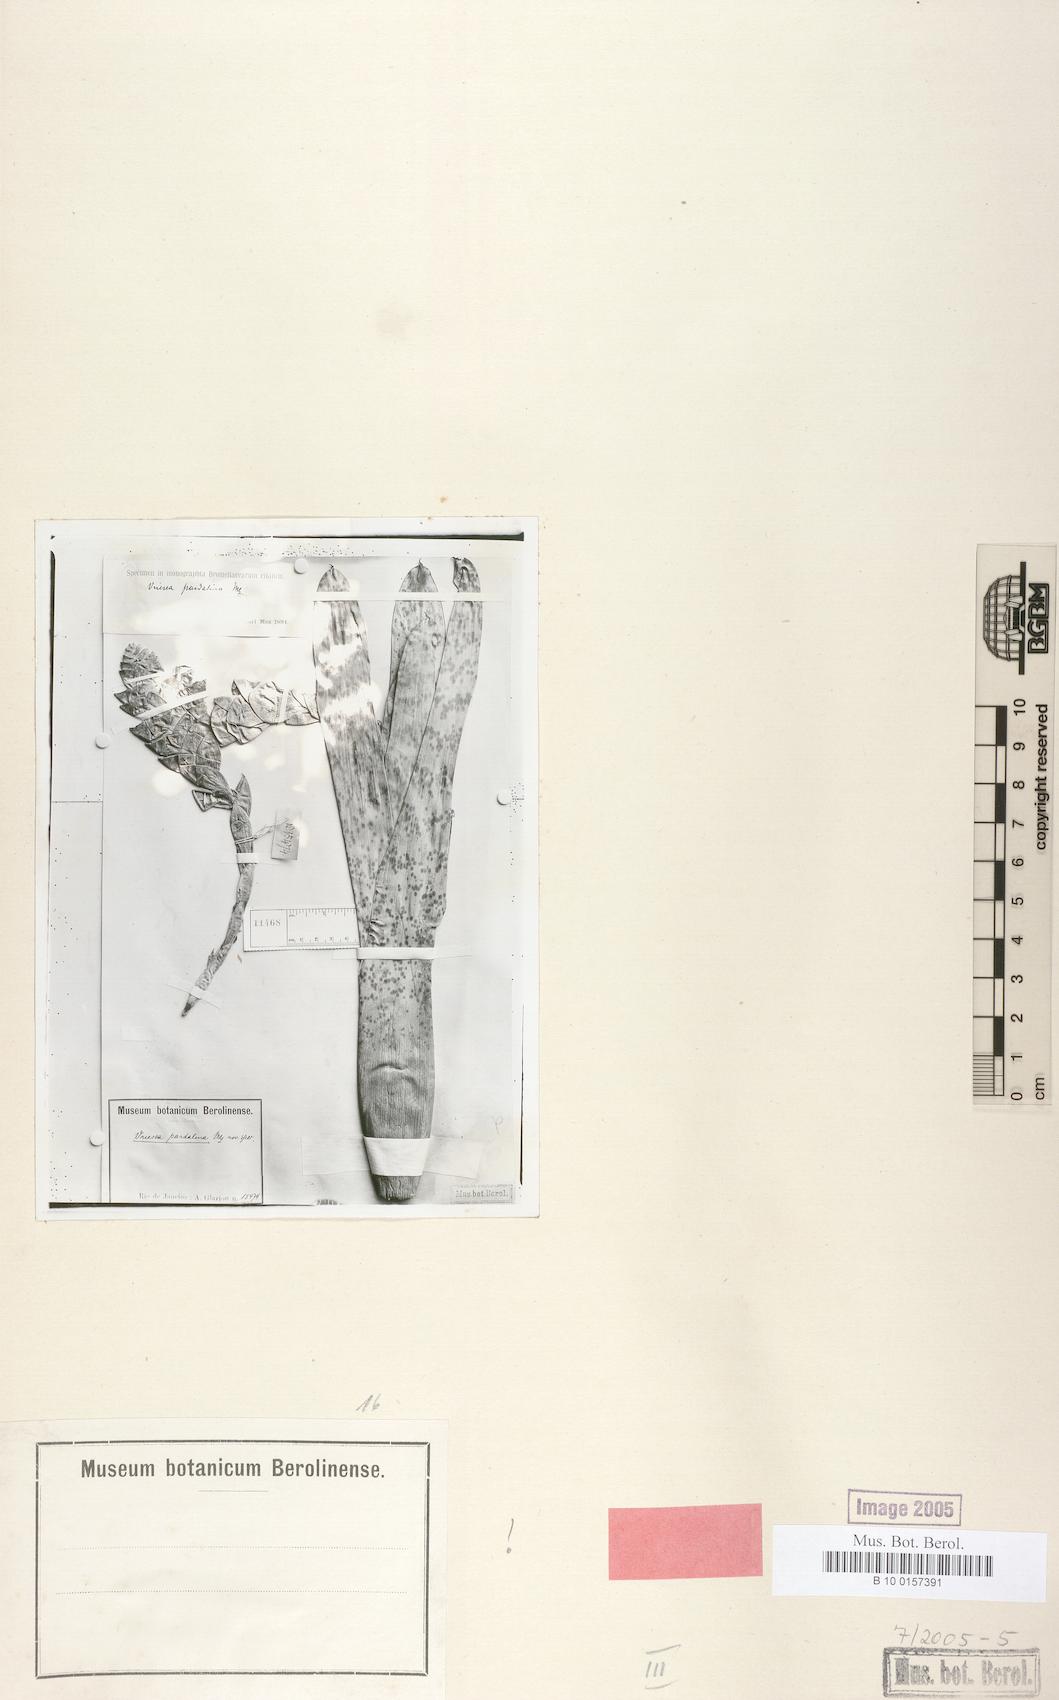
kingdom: Plantae
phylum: Tracheophyta
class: Liliopsida
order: Poales
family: Bromeliaceae
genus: Vriesea
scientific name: Vriesea pardalina
